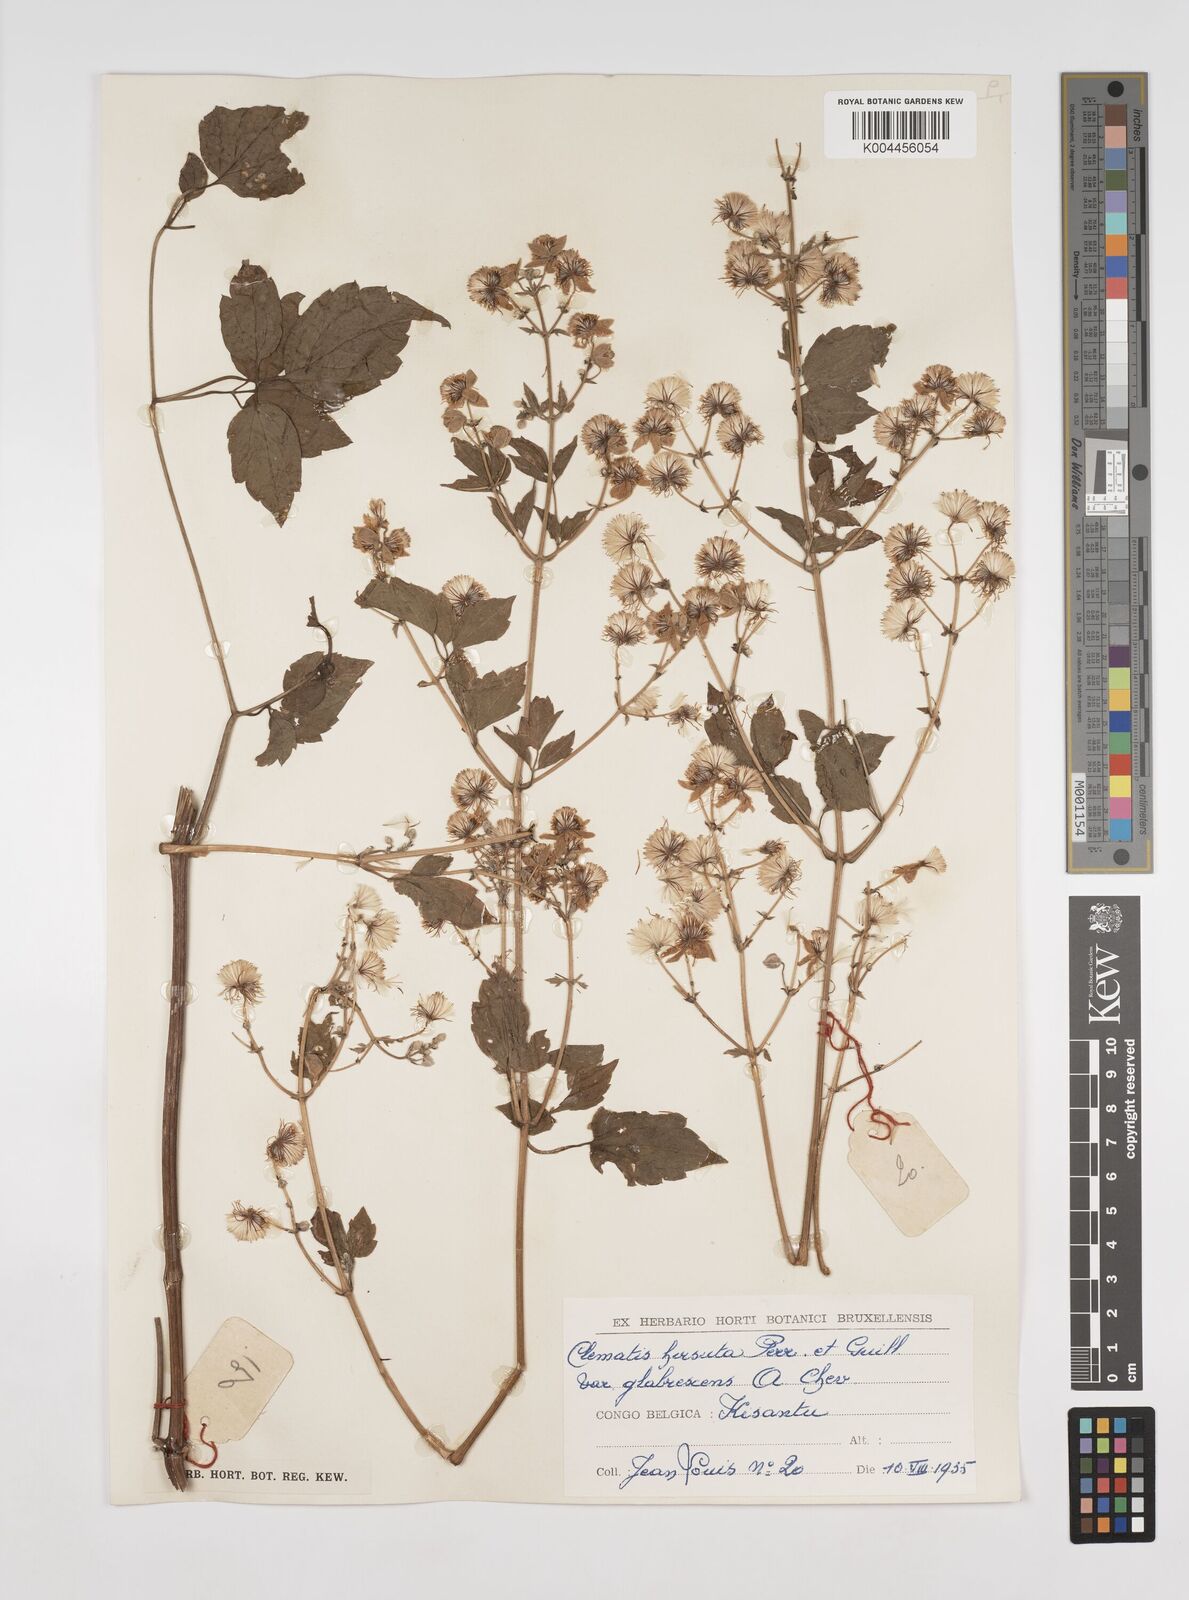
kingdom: Plantae
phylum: Tracheophyta
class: Magnoliopsida
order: Ranunculales
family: Ranunculaceae
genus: Clematis
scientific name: Clematis hirsuta
